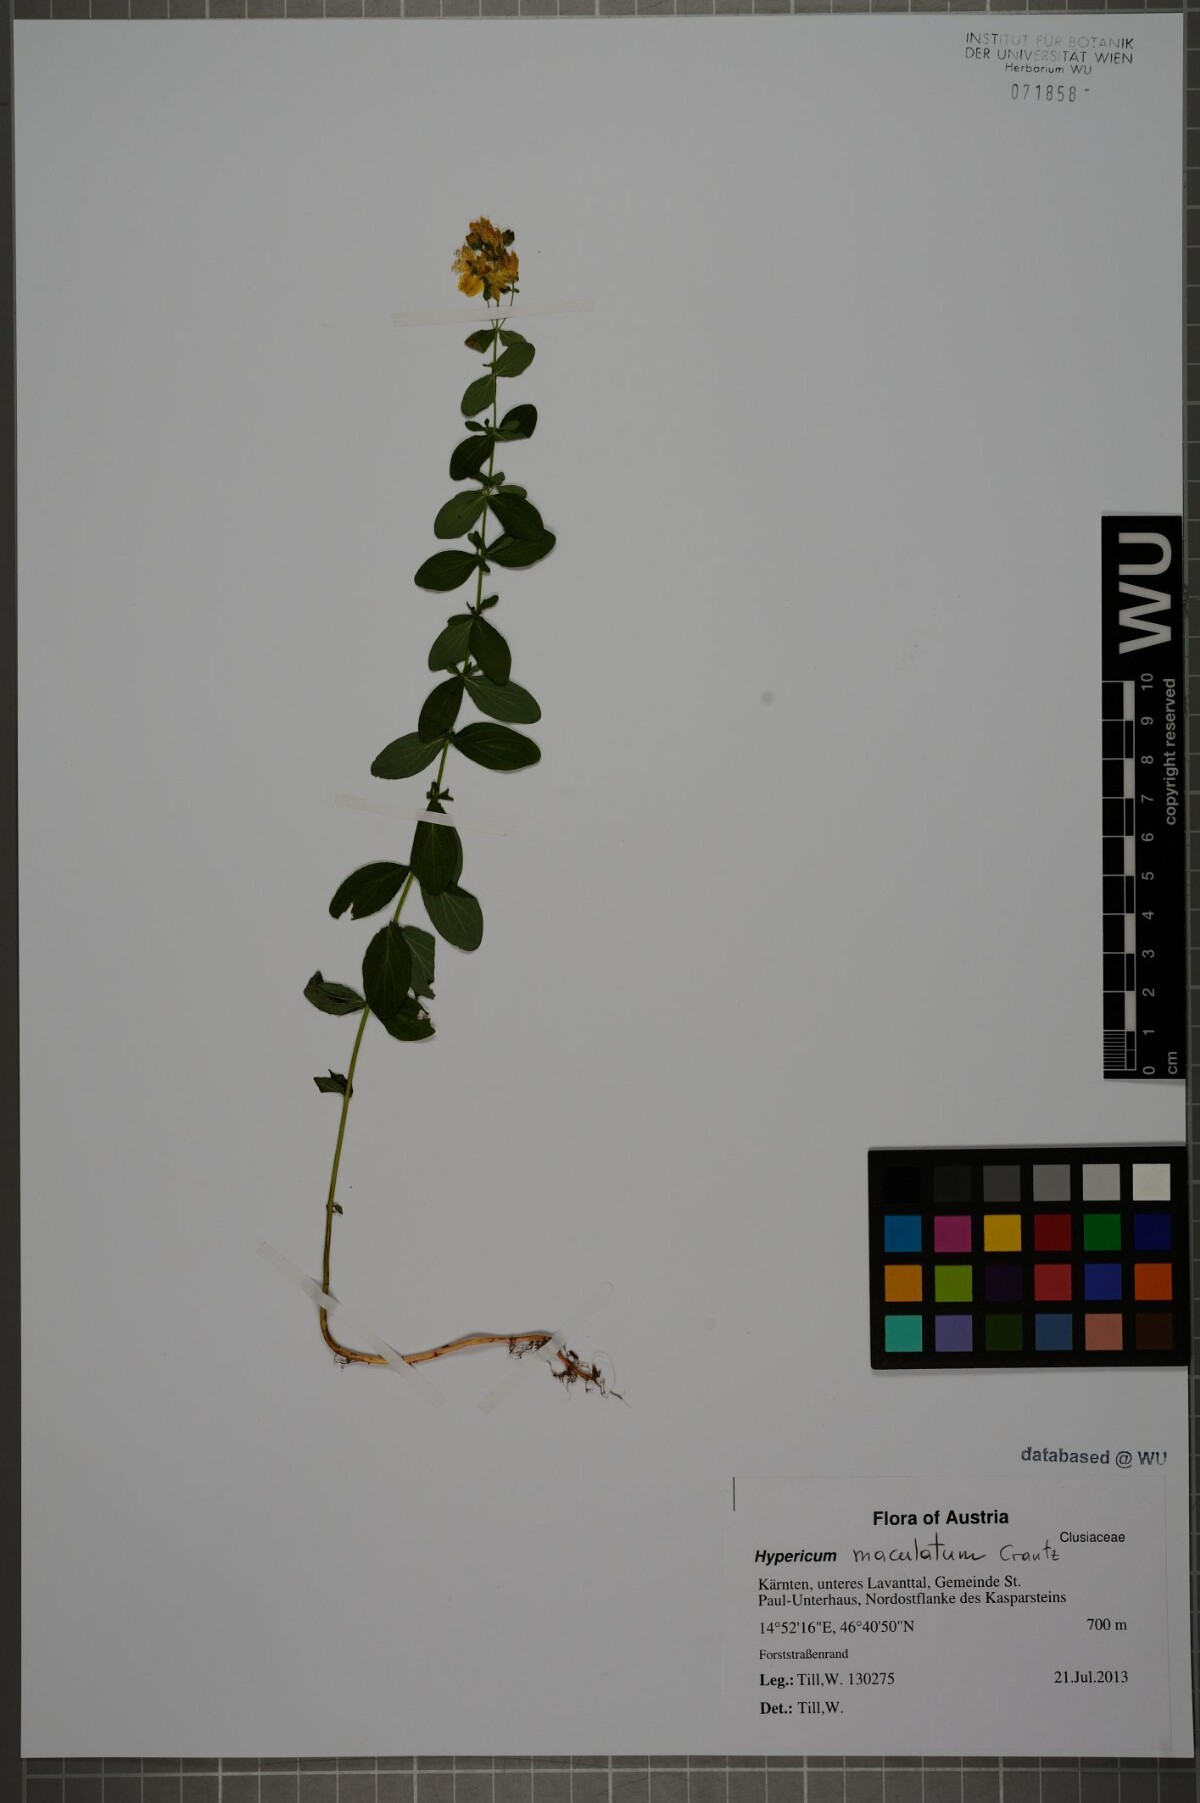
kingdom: Plantae
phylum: Tracheophyta
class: Magnoliopsida
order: Malpighiales
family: Hypericaceae
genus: Hypericum
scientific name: Hypericum maculatum
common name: Imperforate st. john's-wort
